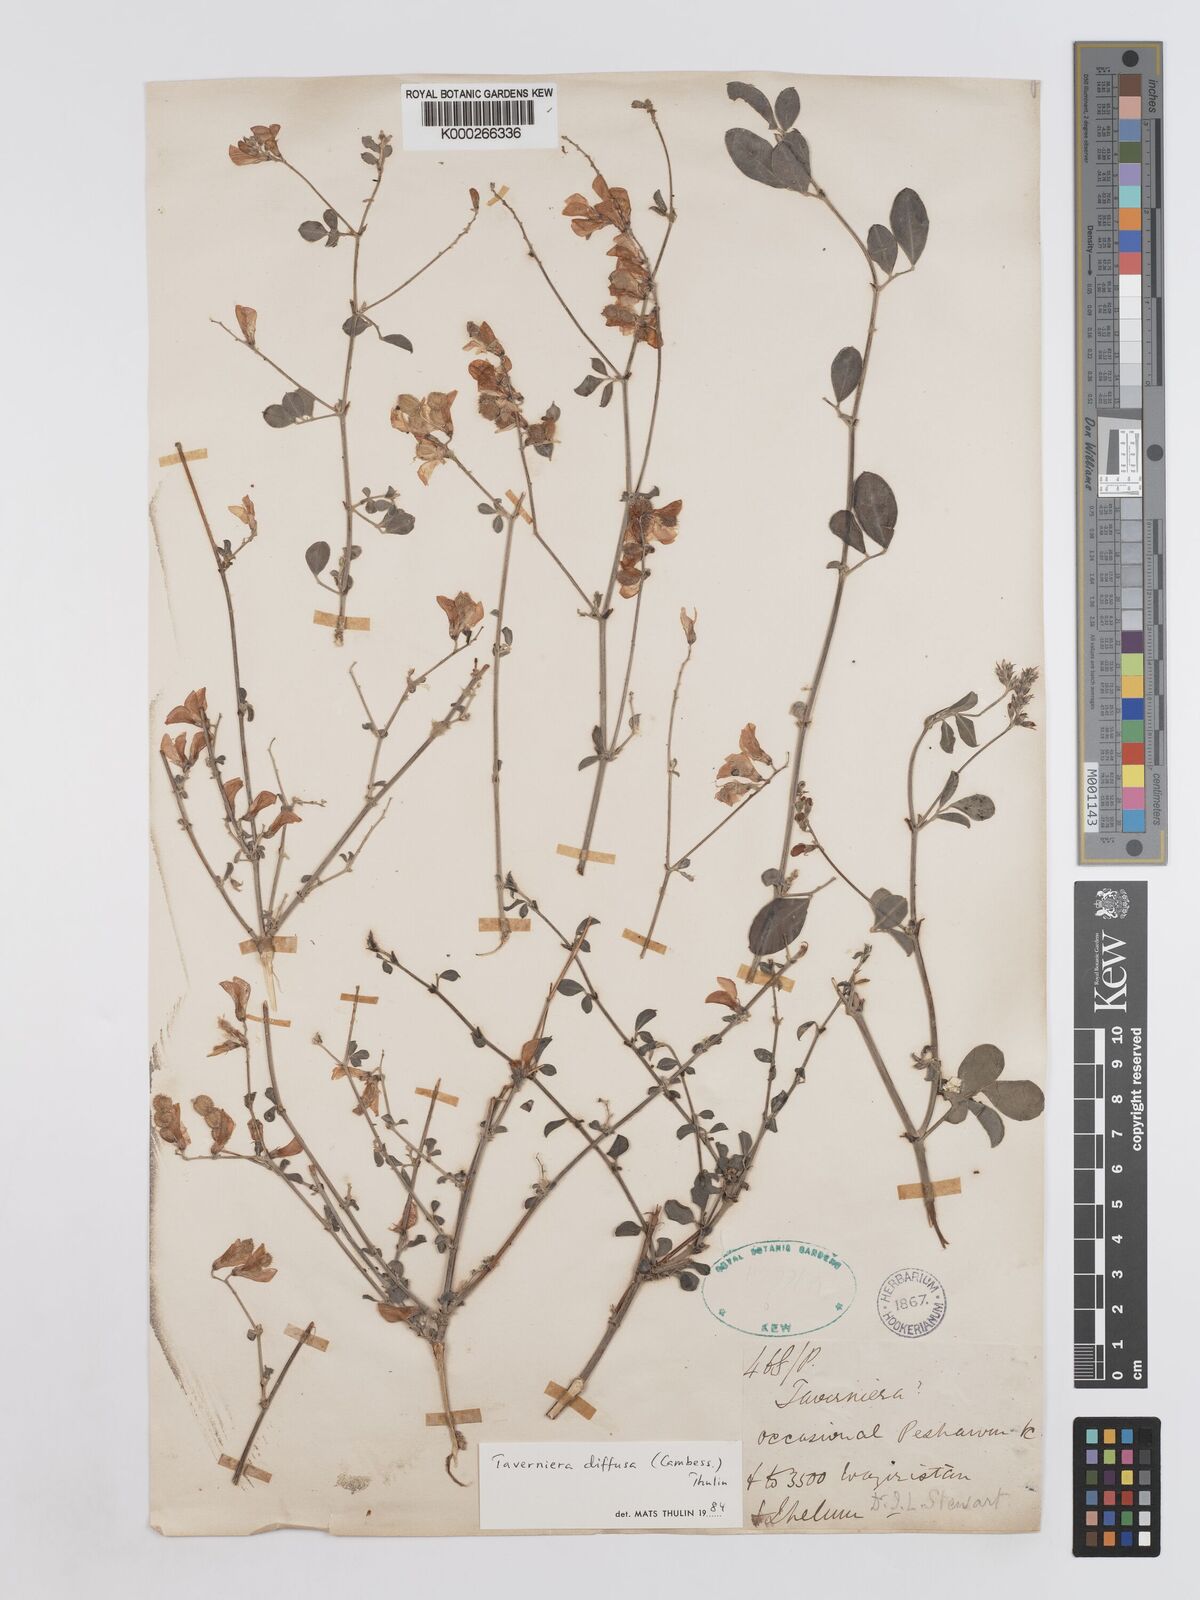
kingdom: Plantae
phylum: Tracheophyta
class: Magnoliopsida
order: Fabales
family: Fabaceae
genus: Taverniera
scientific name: Taverniera diffusa
